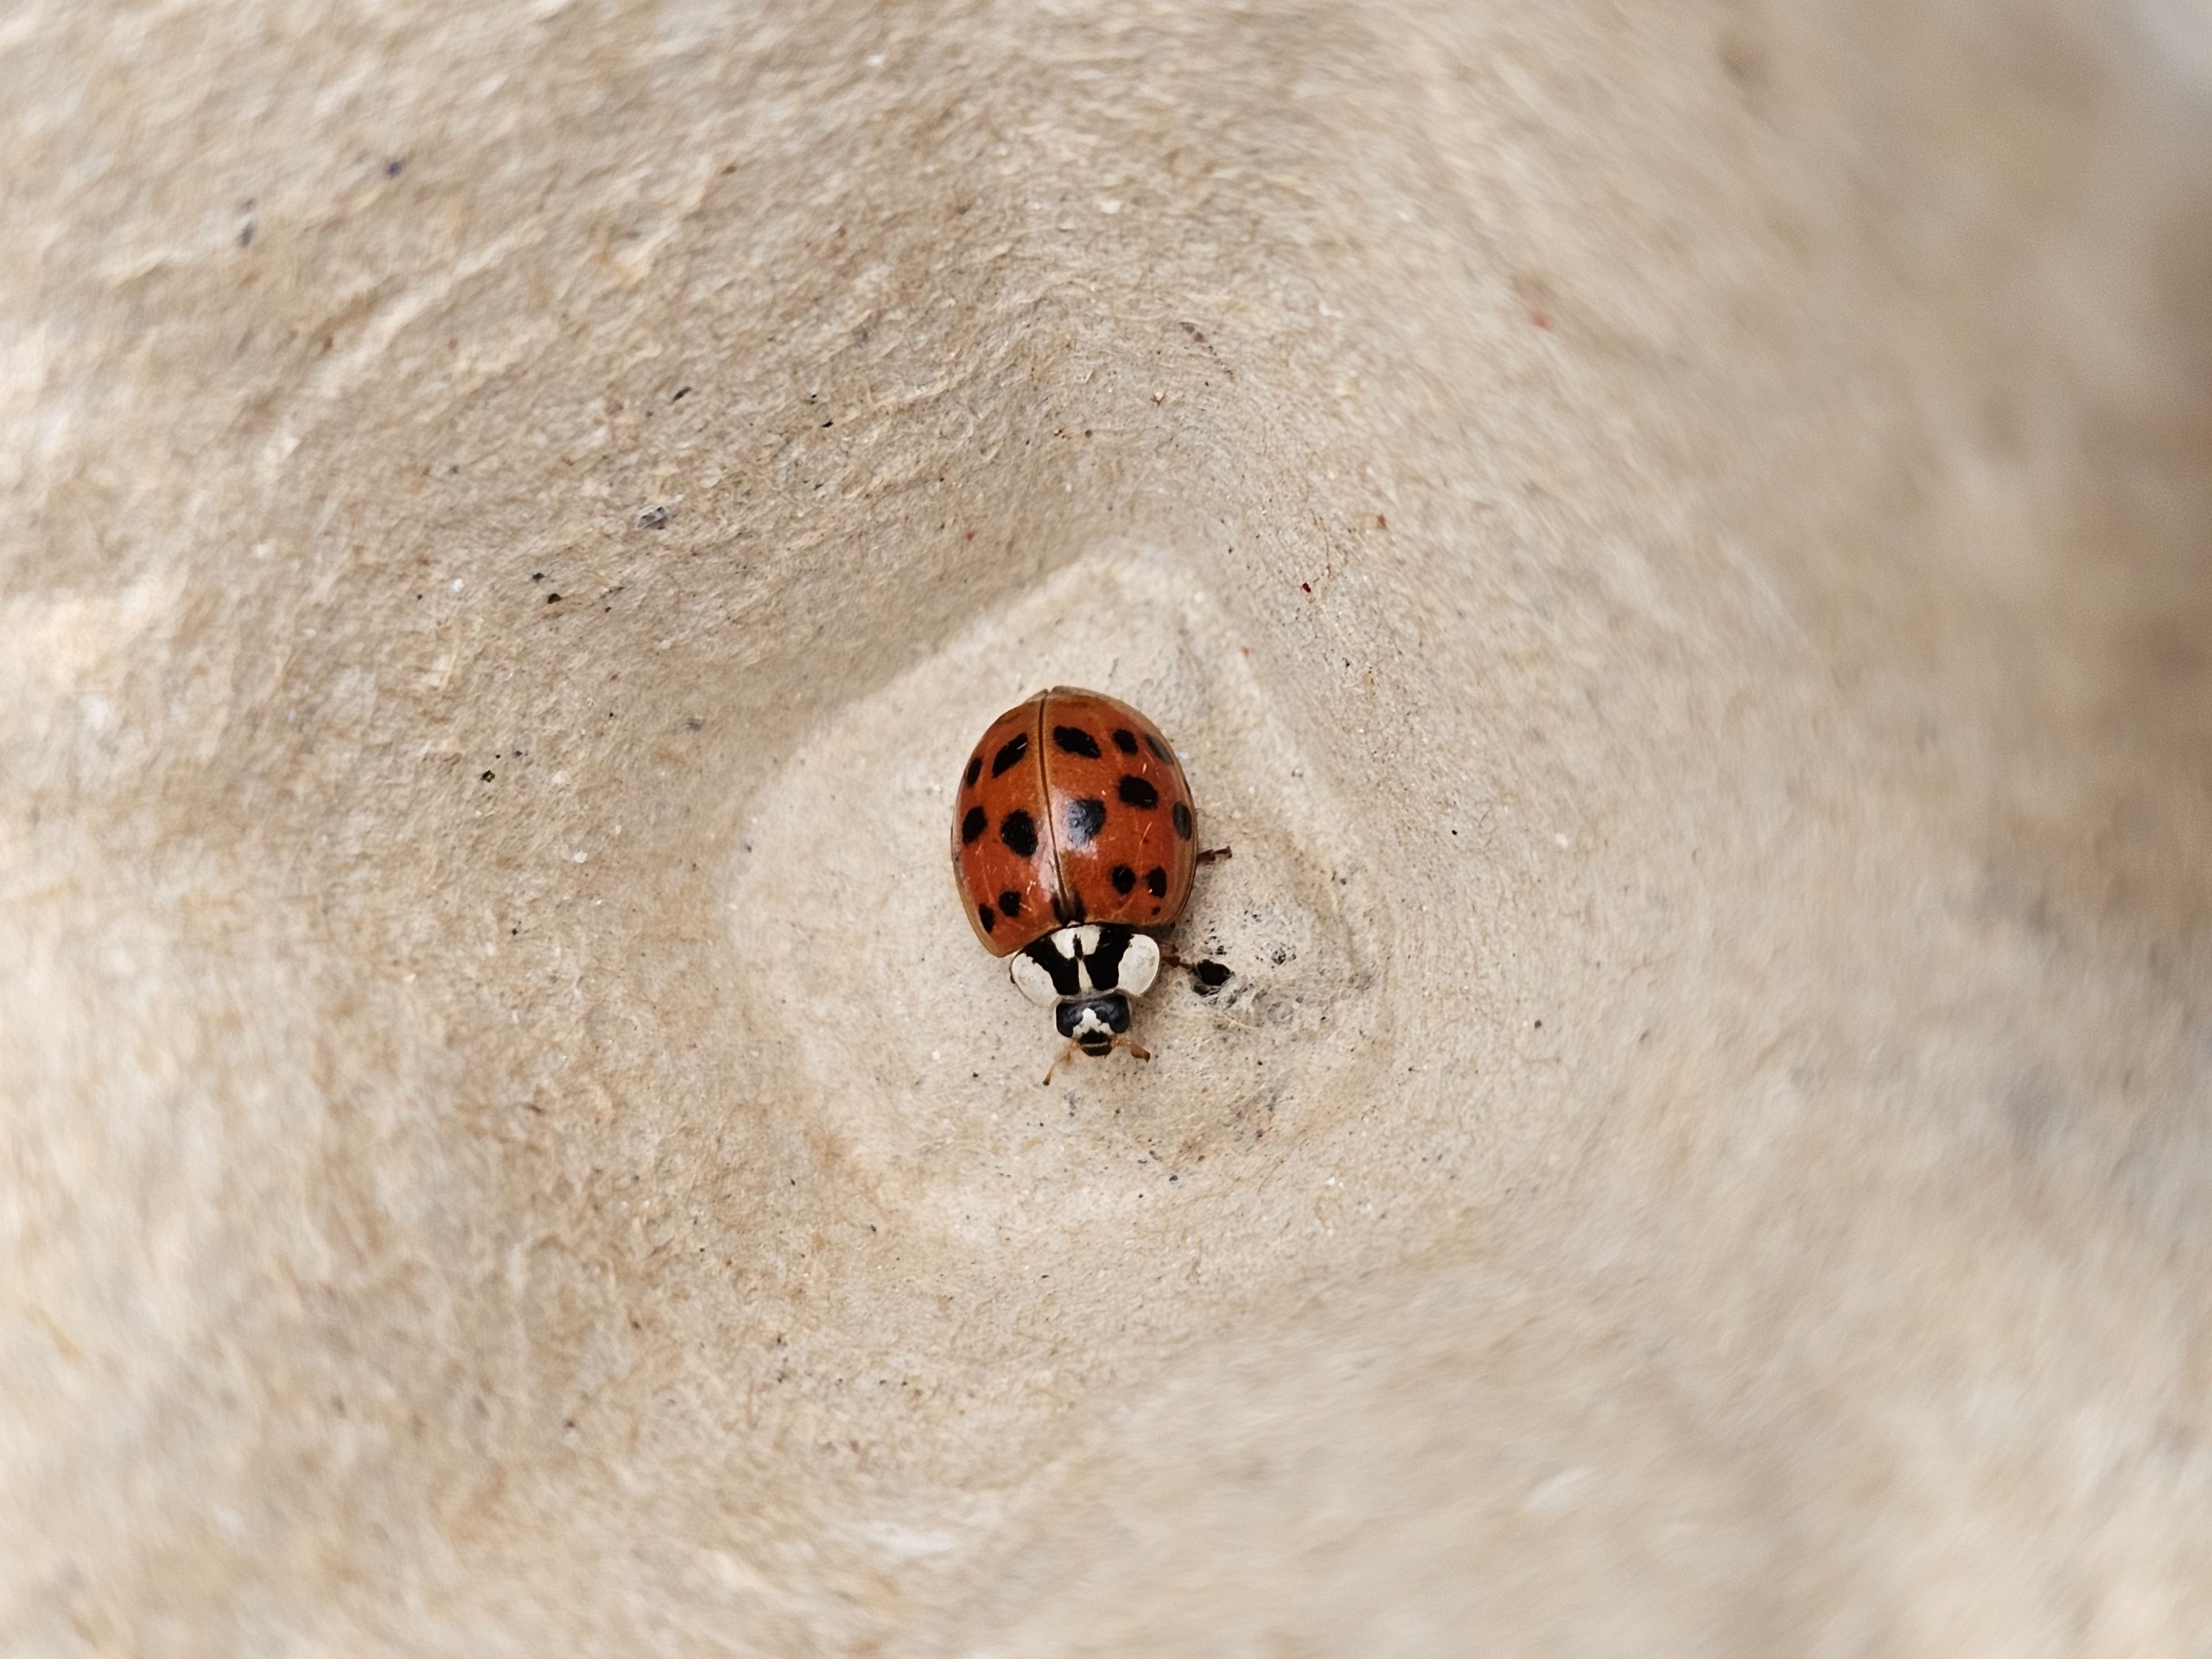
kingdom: Animalia
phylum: Arthropoda
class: Insecta
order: Coleoptera
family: Coccinellidae
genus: Harmonia
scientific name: Harmonia axyridis
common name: Harlekinmariehøne
